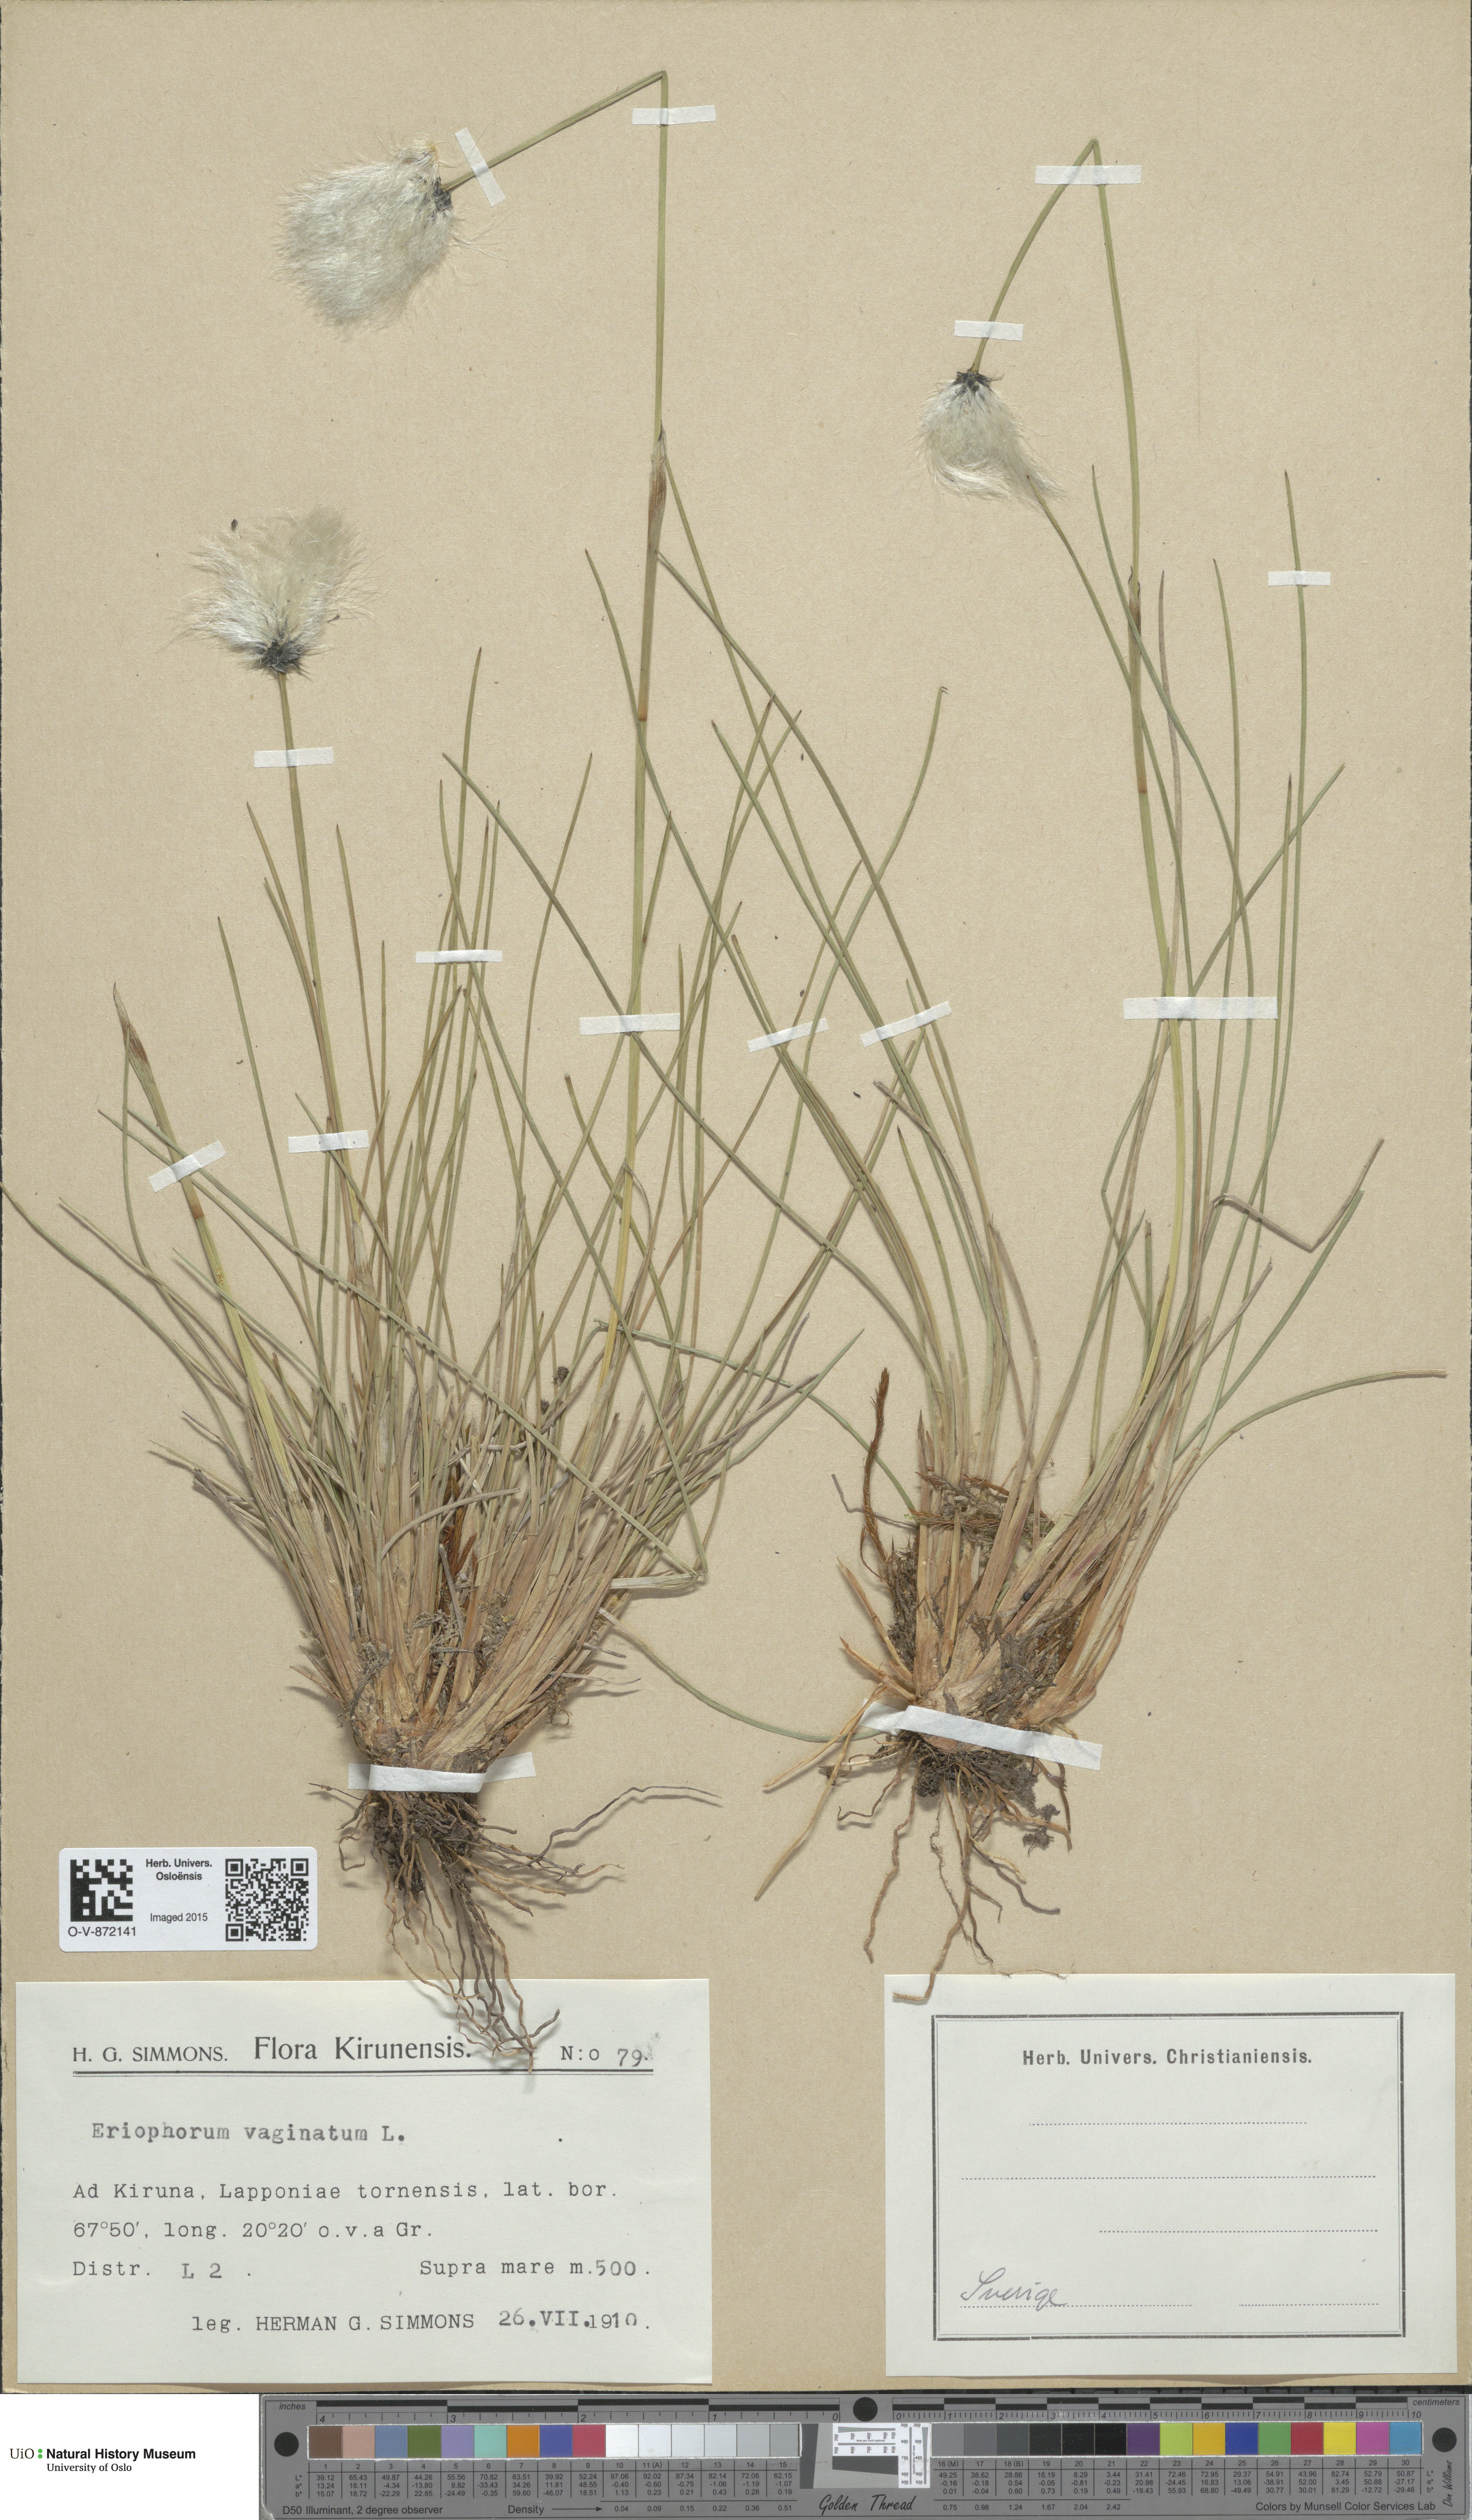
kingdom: Plantae
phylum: Tracheophyta
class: Liliopsida
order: Poales
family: Cyperaceae
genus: Eriophorum
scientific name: Eriophorum vaginatum
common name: Hare's-tail cottongrass
